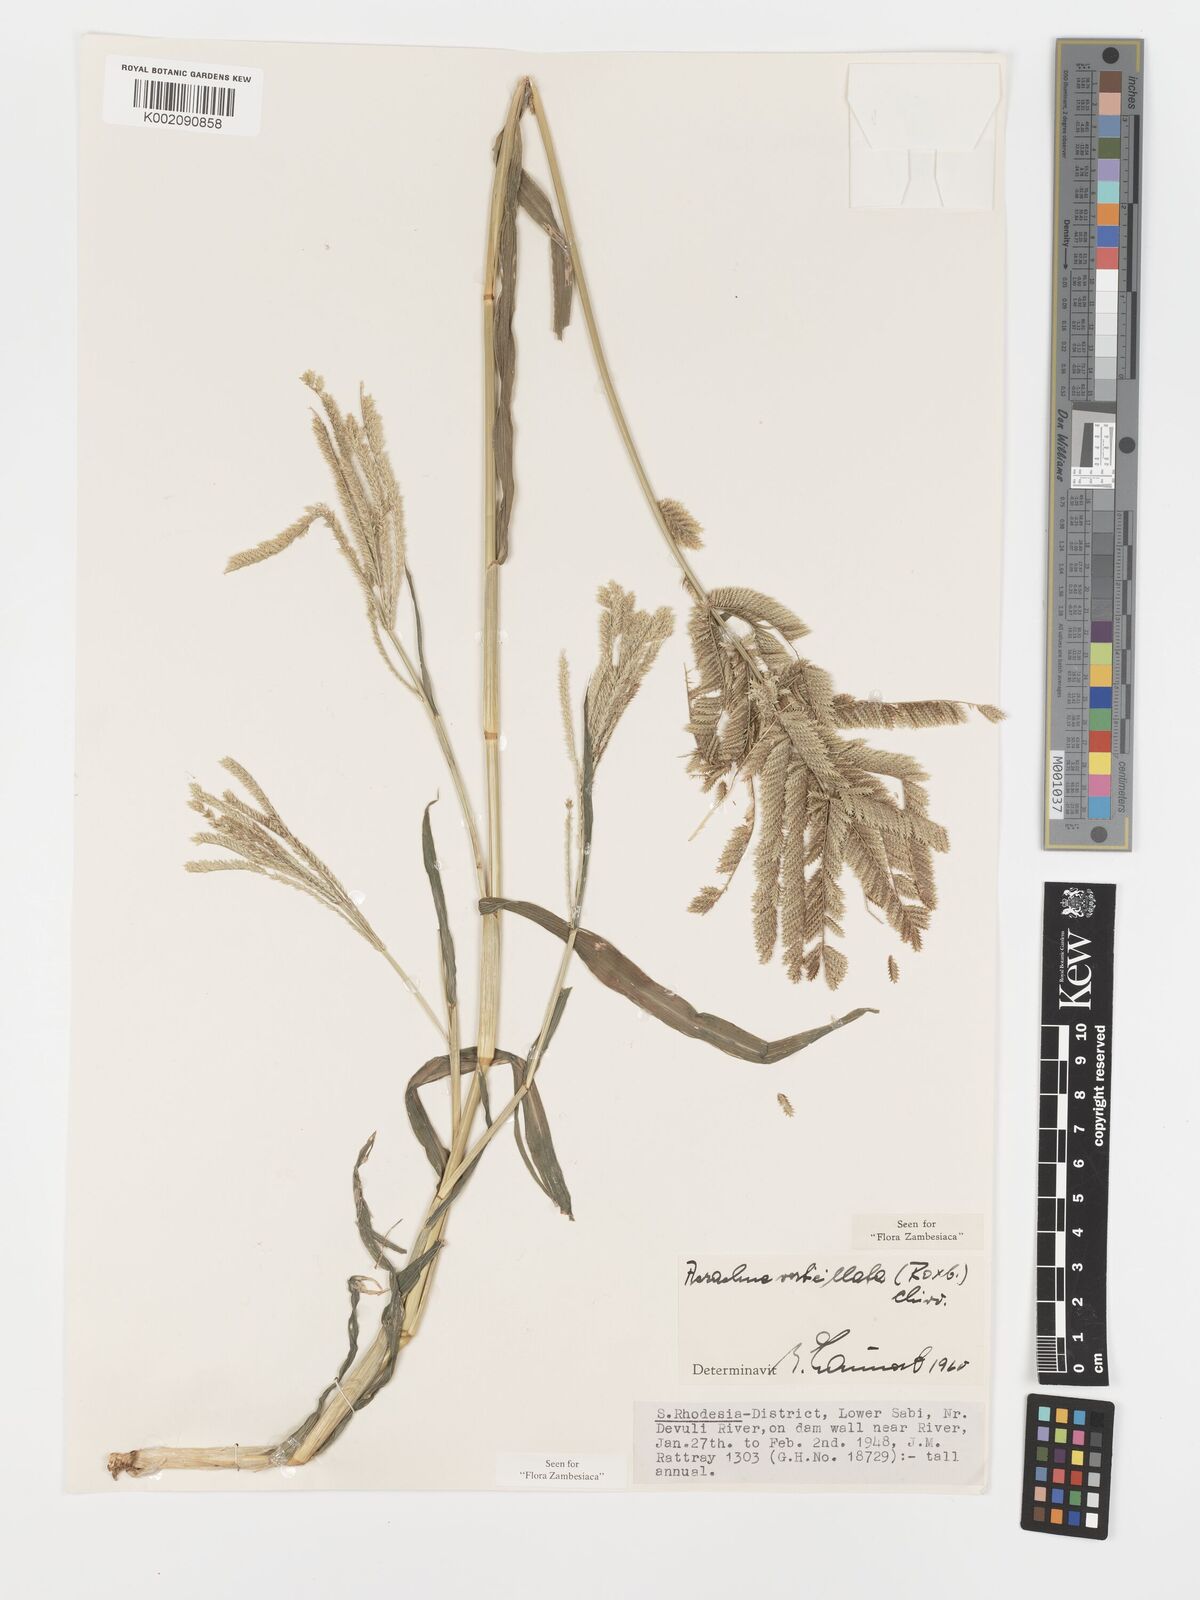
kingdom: Plantae
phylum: Tracheophyta
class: Liliopsida
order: Poales
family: Poaceae
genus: Acrachne
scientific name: Acrachne racemosa
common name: Goosegrass
